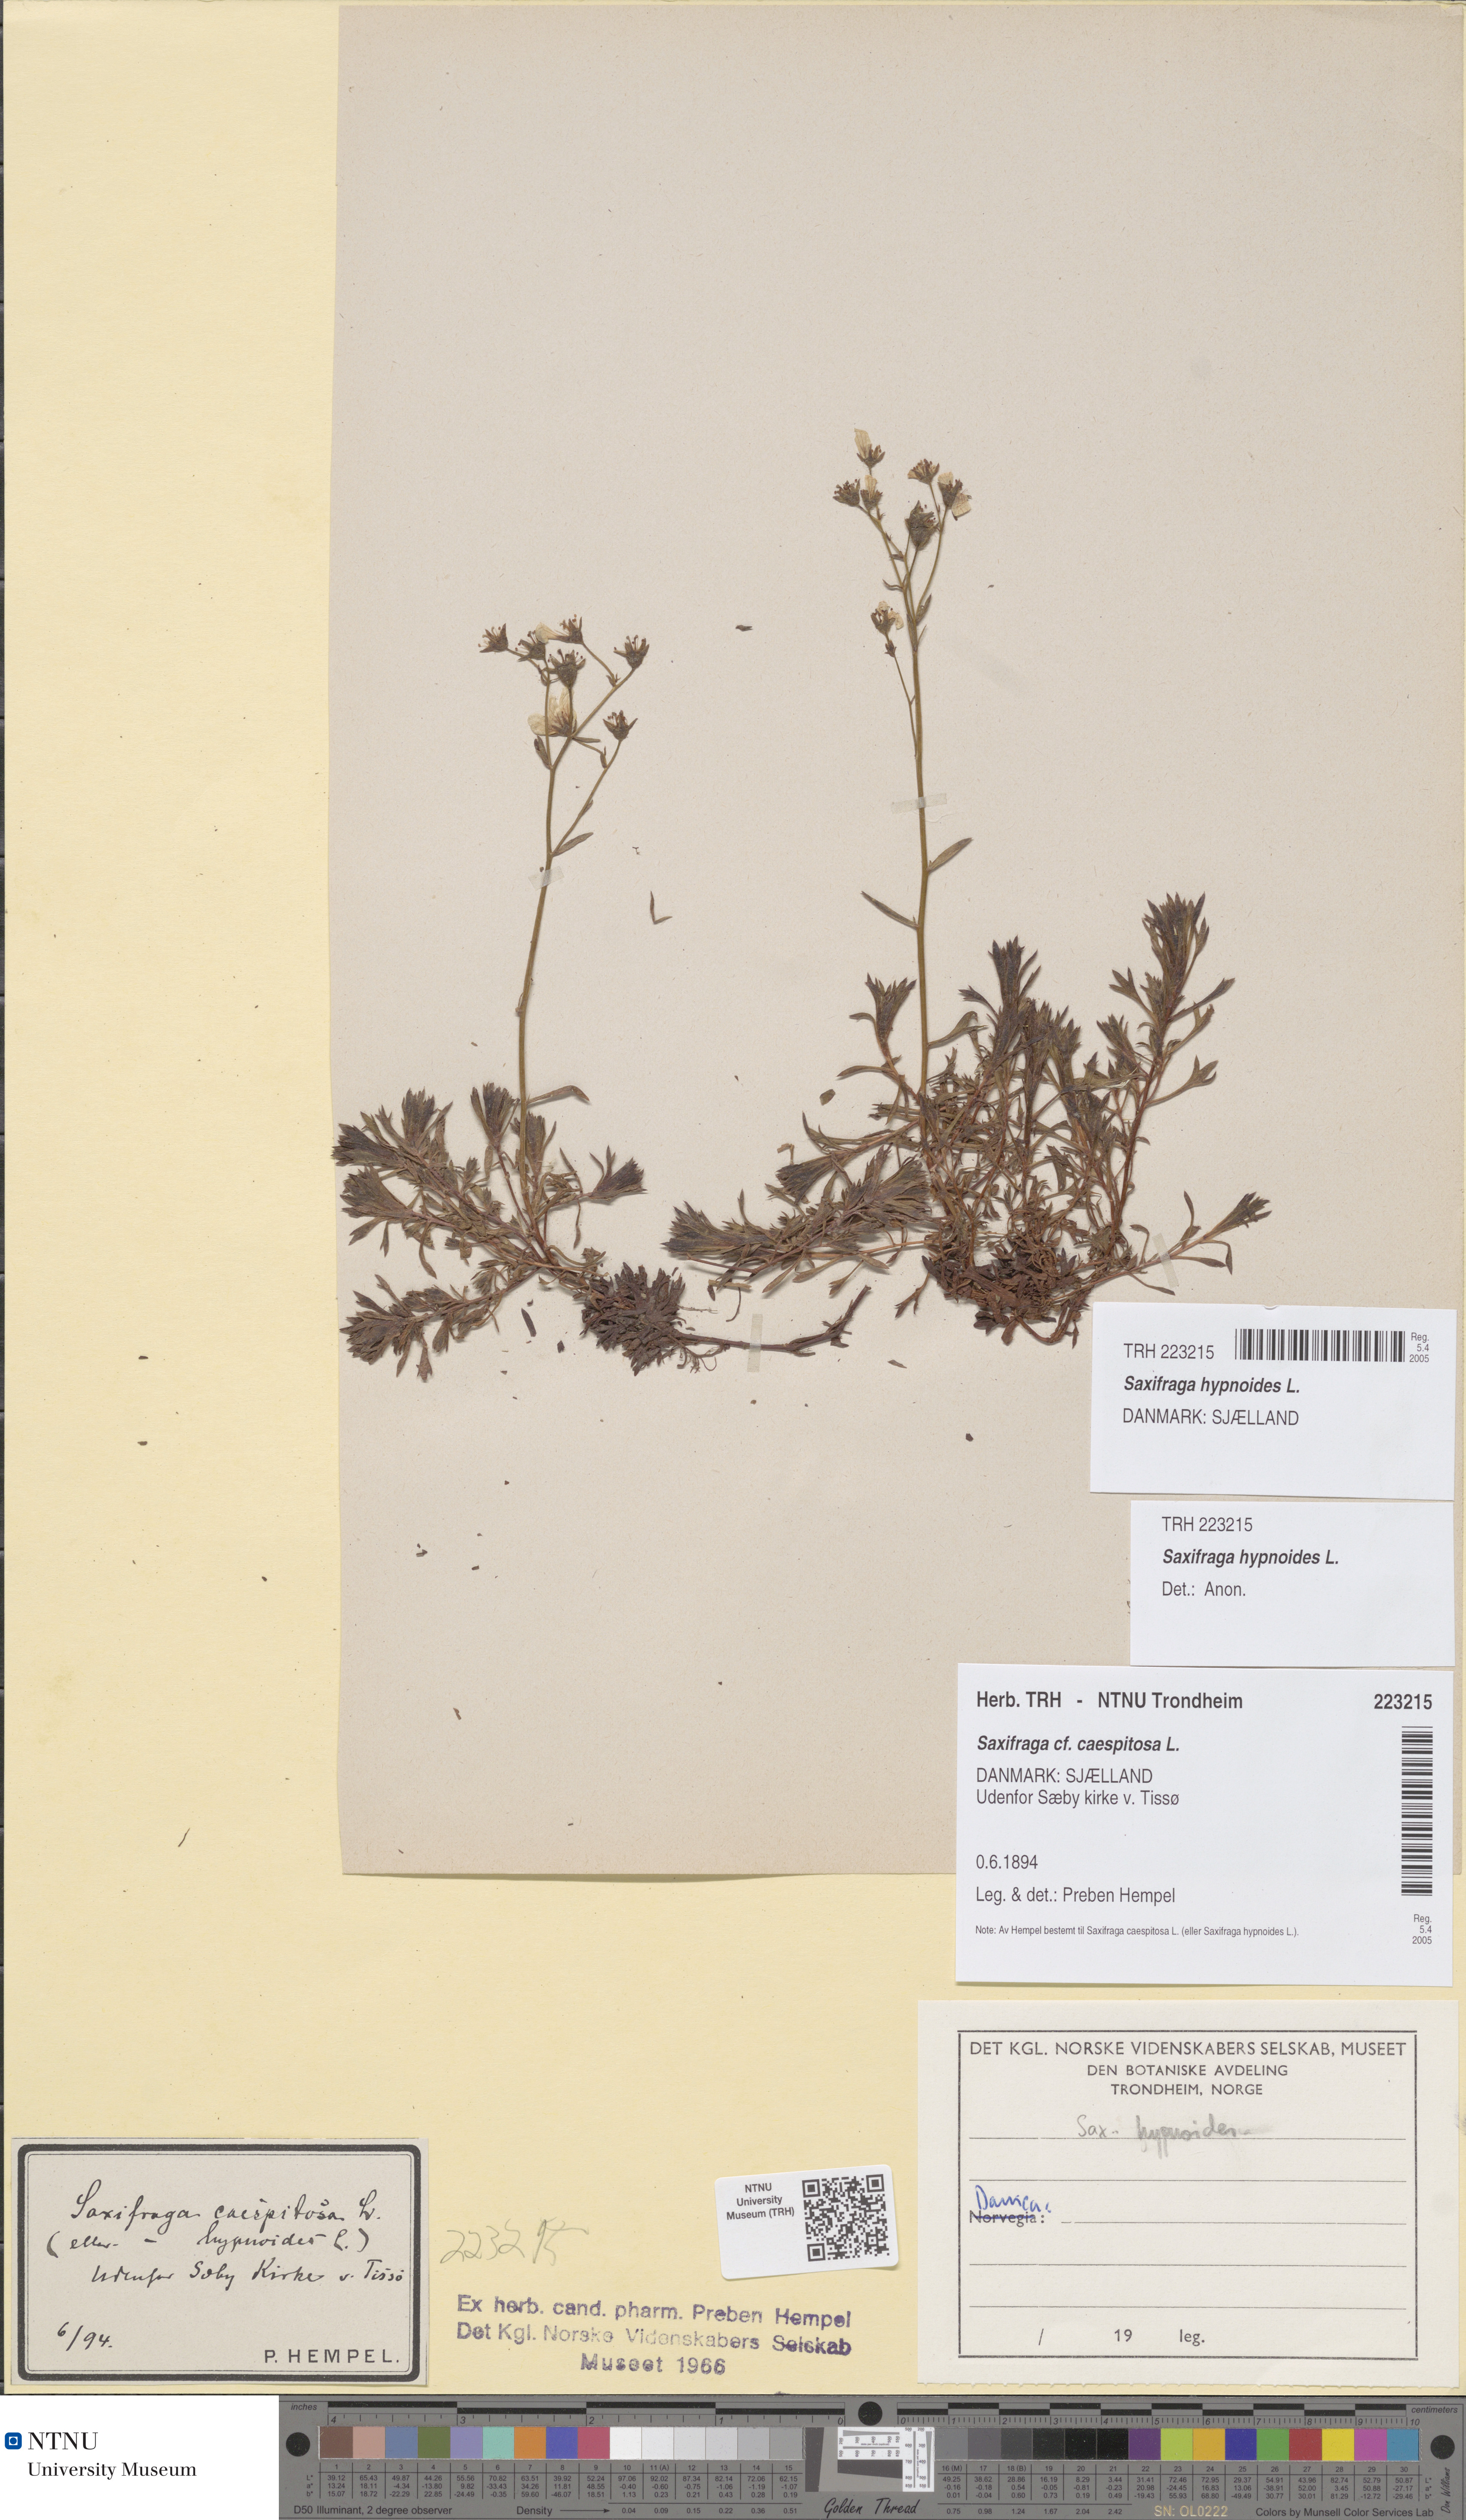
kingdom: Plantae
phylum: Tracheophyta
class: Magnoliopsida
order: Saxifragales
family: Saxifragaceae
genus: Saxifraga
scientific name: Saxifraga hypnoides
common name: Mossy saxifrage
